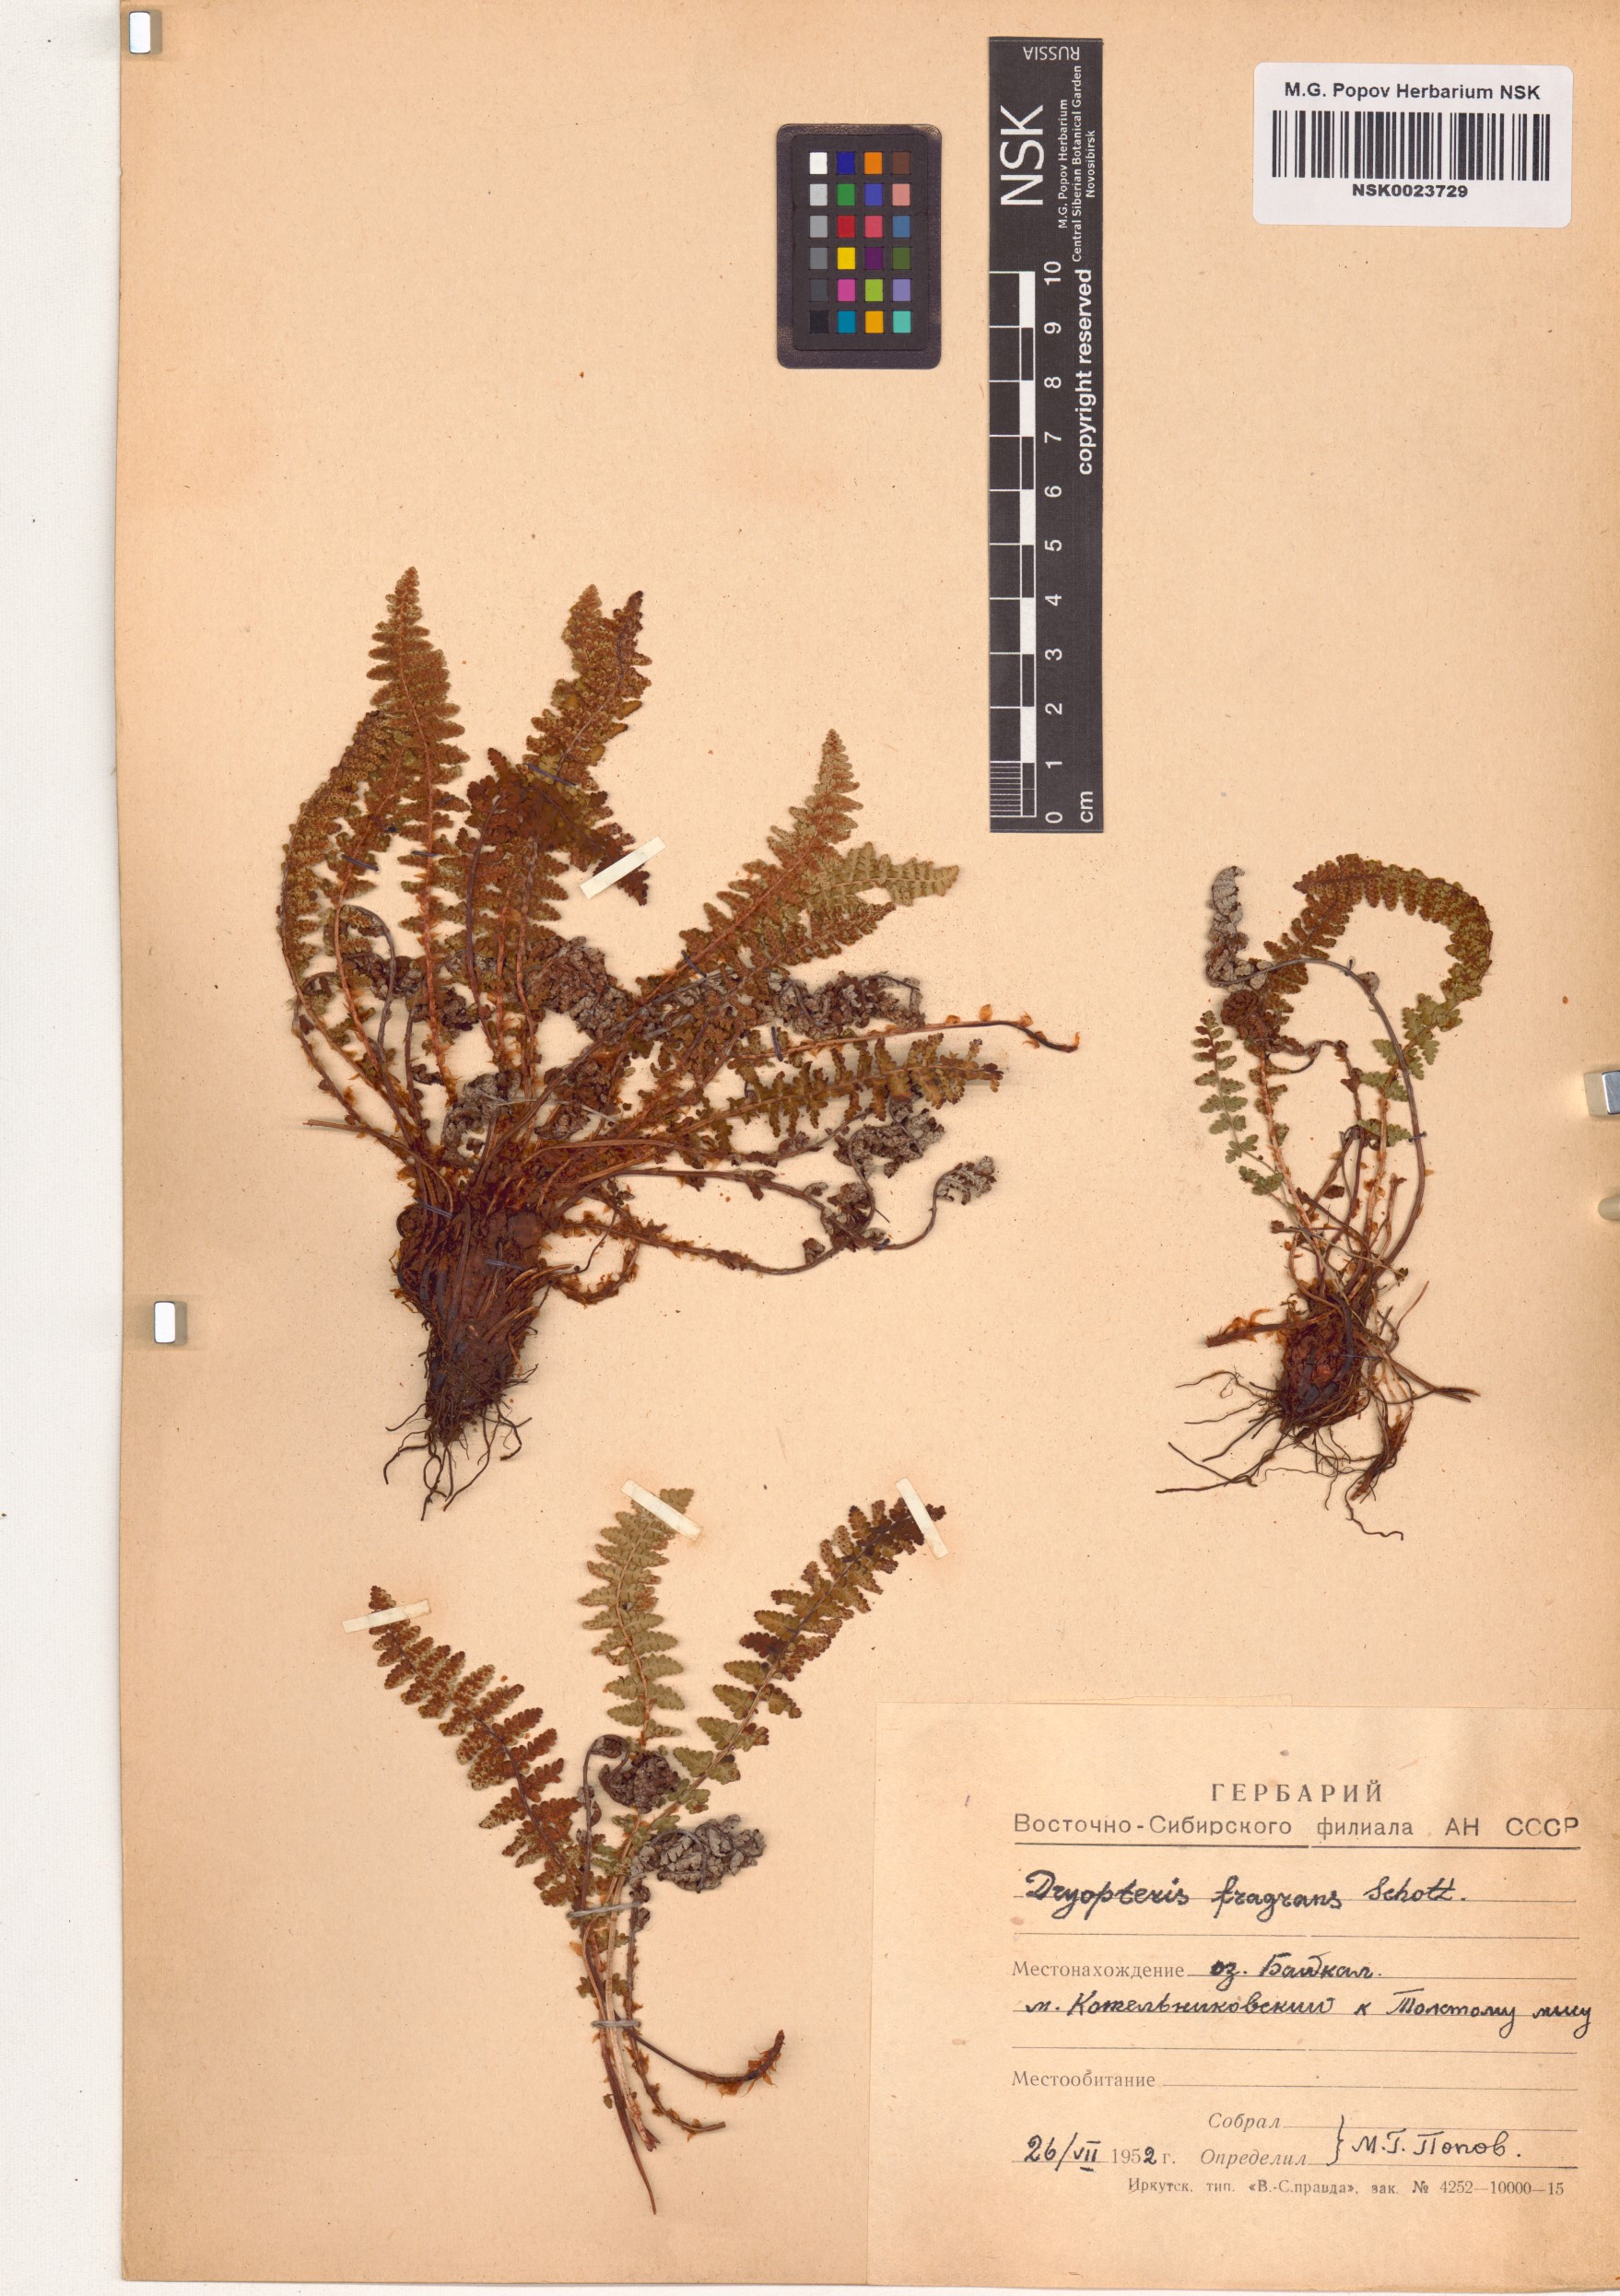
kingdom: Plantae
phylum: Tracheophyta
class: Polypodiopsida
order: Polypodiales
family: Dryopteridaceae
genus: Dryopteris
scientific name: Dryopteris fragrans
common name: Fragrant wood fern
